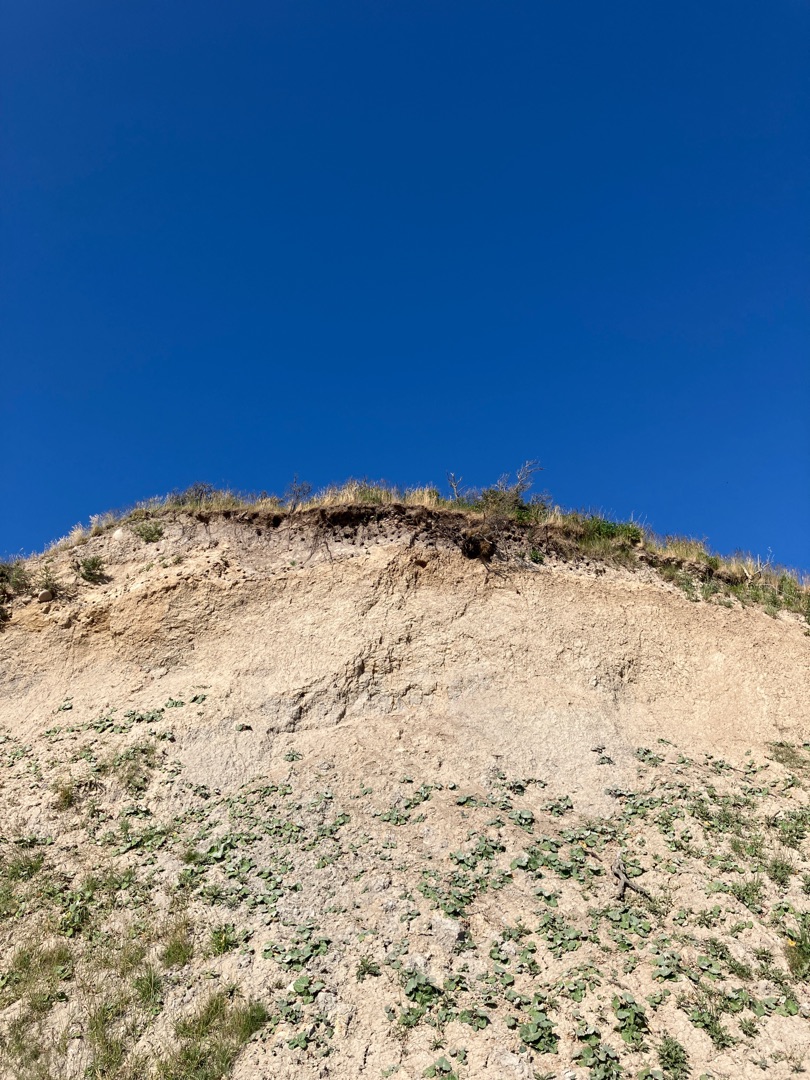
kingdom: Animalia
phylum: Chordata
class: Aves
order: Passeriformes
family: Hirundinidae
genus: Riparia
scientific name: Riparia riparia
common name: Digesvale
